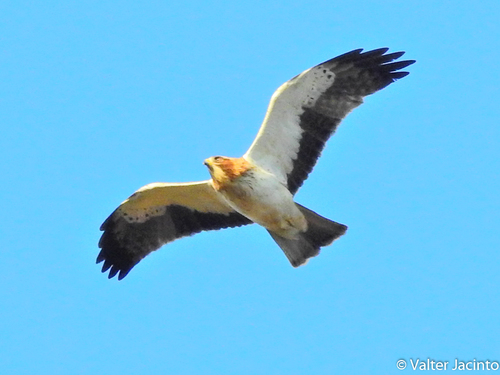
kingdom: Animalia
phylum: Chordata
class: Aves
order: Accipitriformes
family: Accipitridae
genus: Hieraaetus
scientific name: Hieraaetus pennatus
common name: Booted eagle
